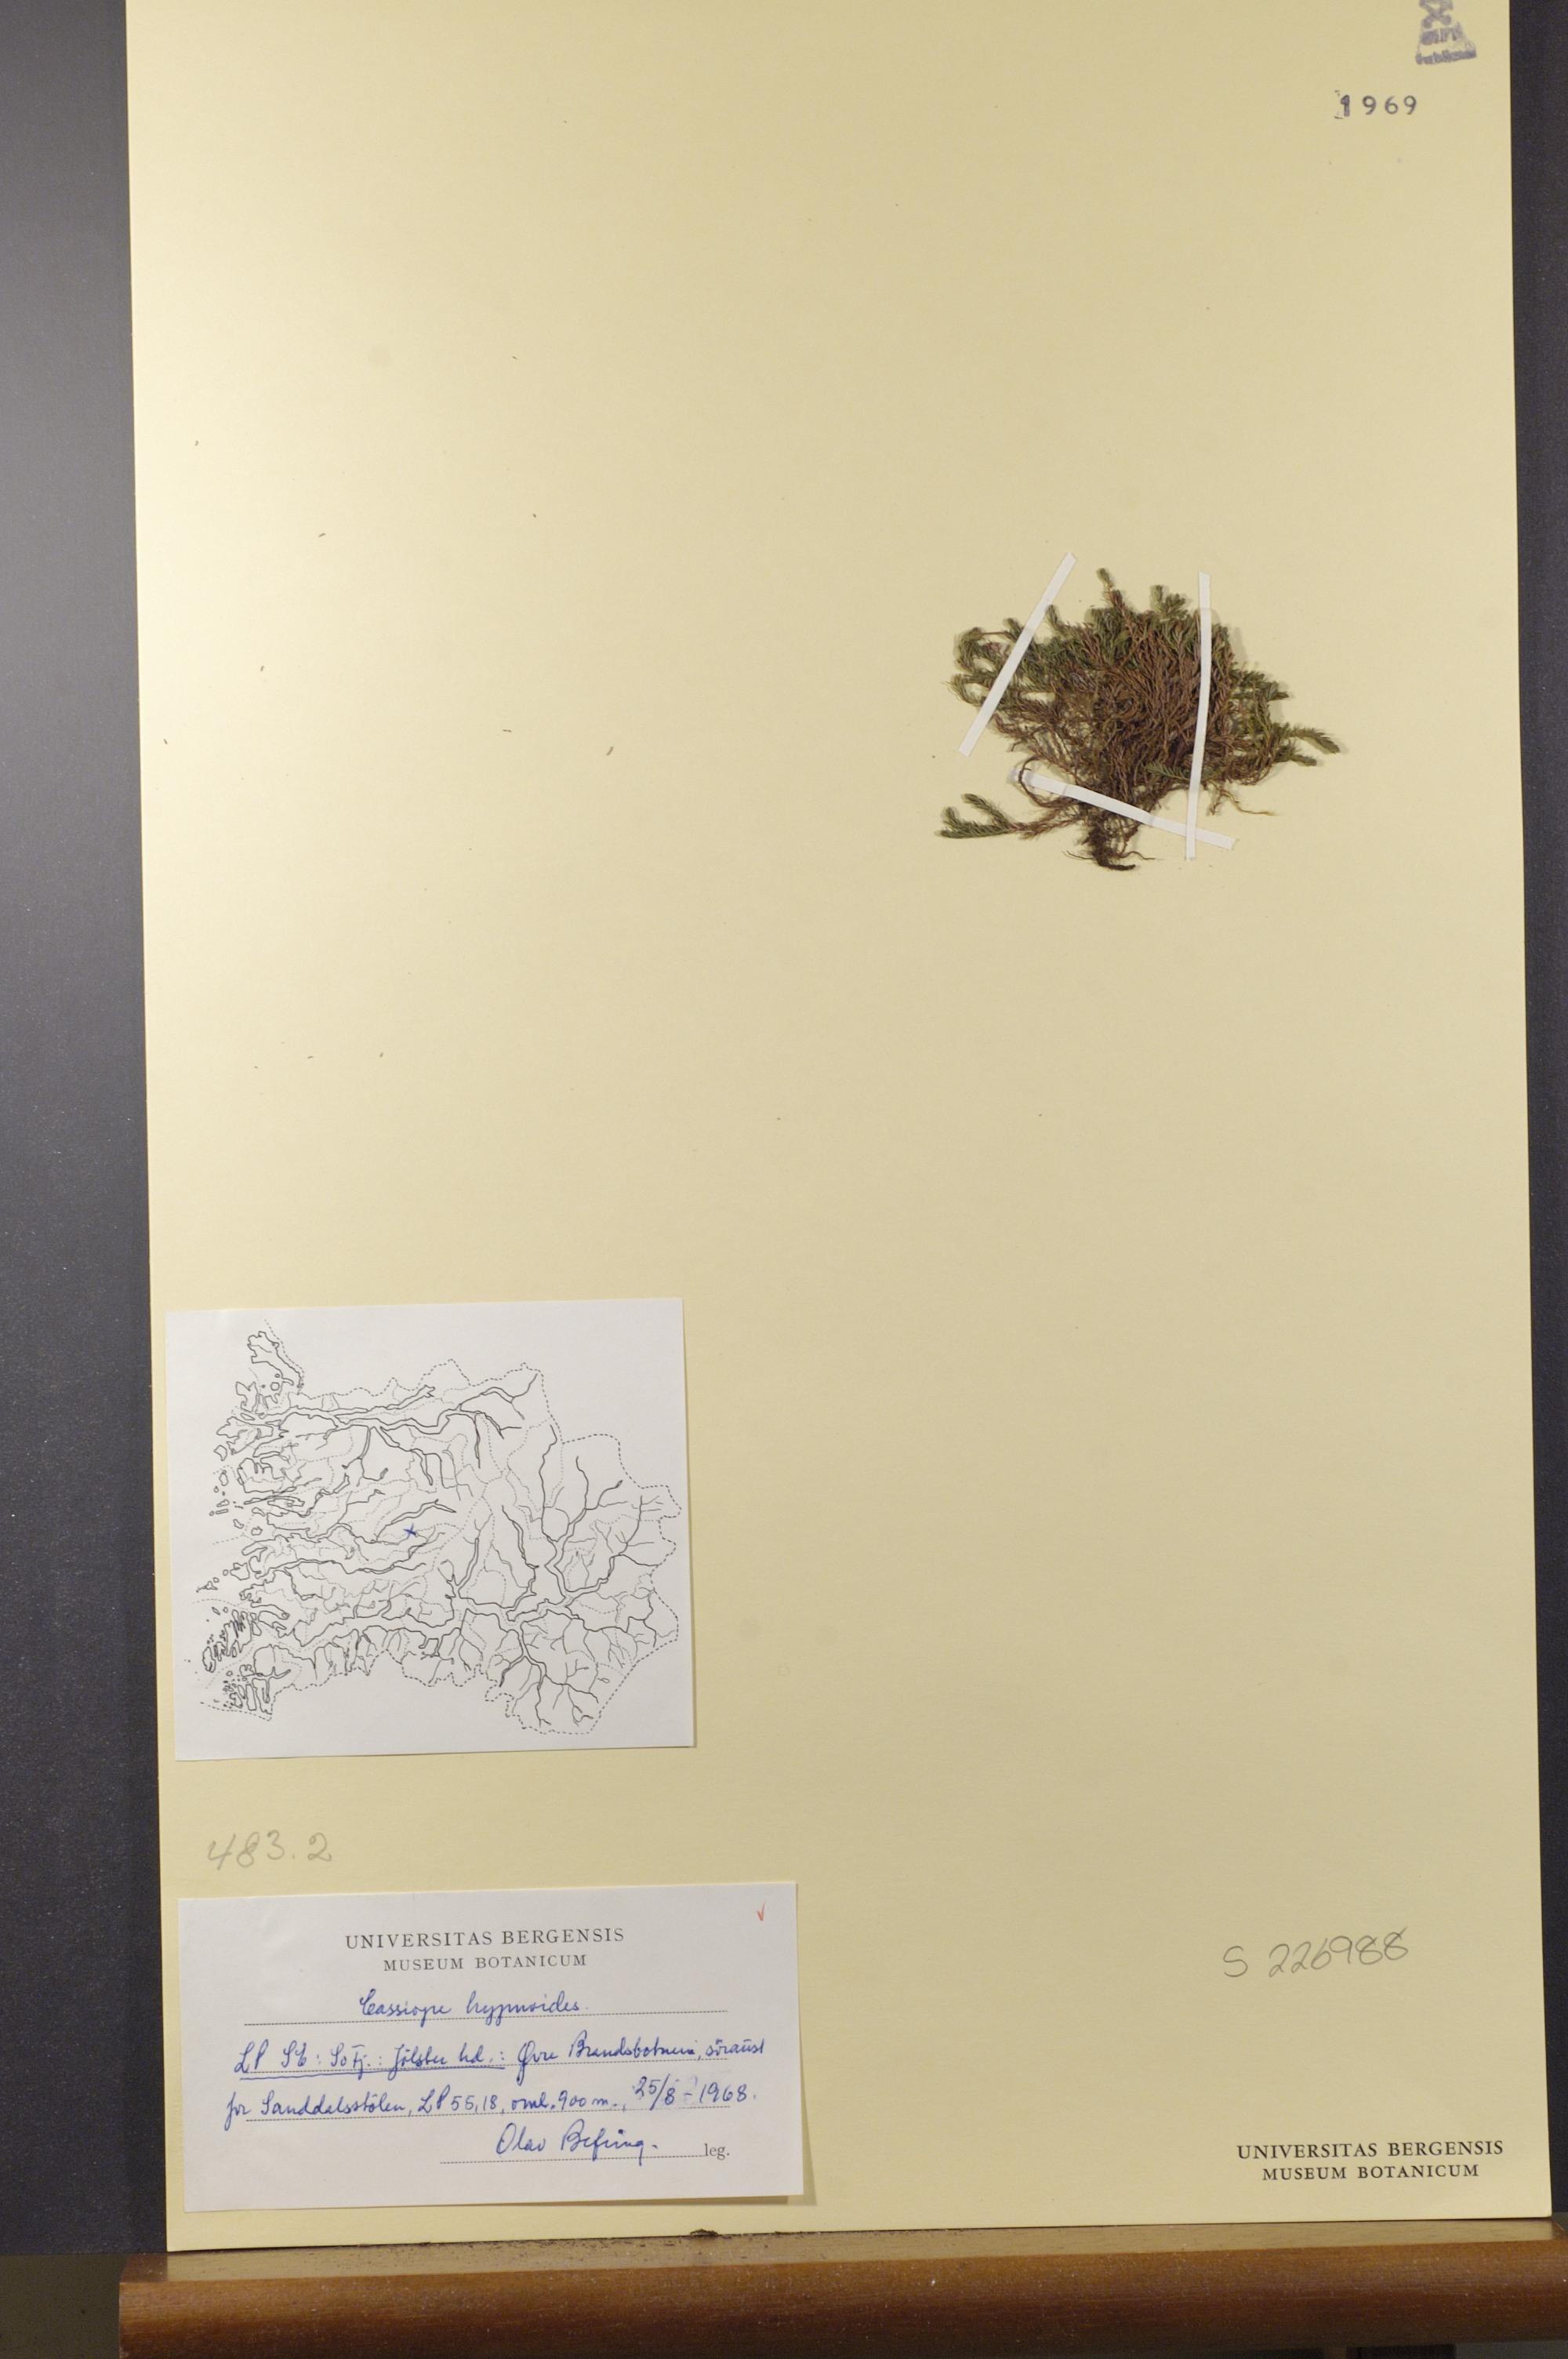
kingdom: Plantae
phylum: Tracheophyta
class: Magnoliopsida
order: Ericales
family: Ericaceae
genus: Harrimanella
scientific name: Harrimanella hypnoides
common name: Moss bell heather
